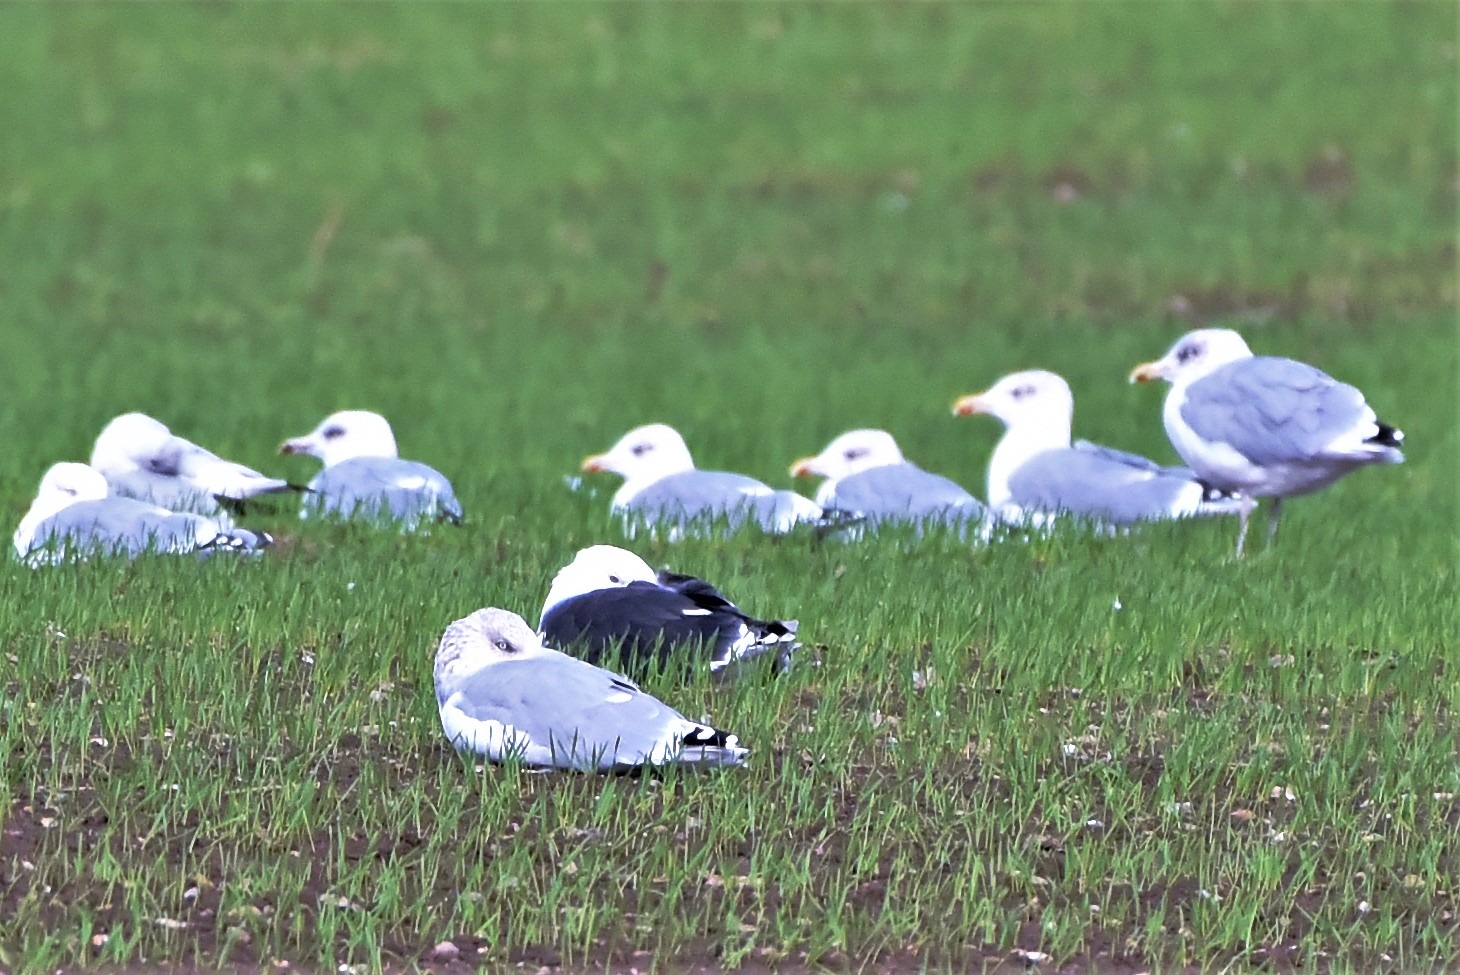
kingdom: Animalia
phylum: Chordata
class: Aves
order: Charadriiformes
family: Laridae
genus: Larus
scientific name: Larus marinus
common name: Svartbag
